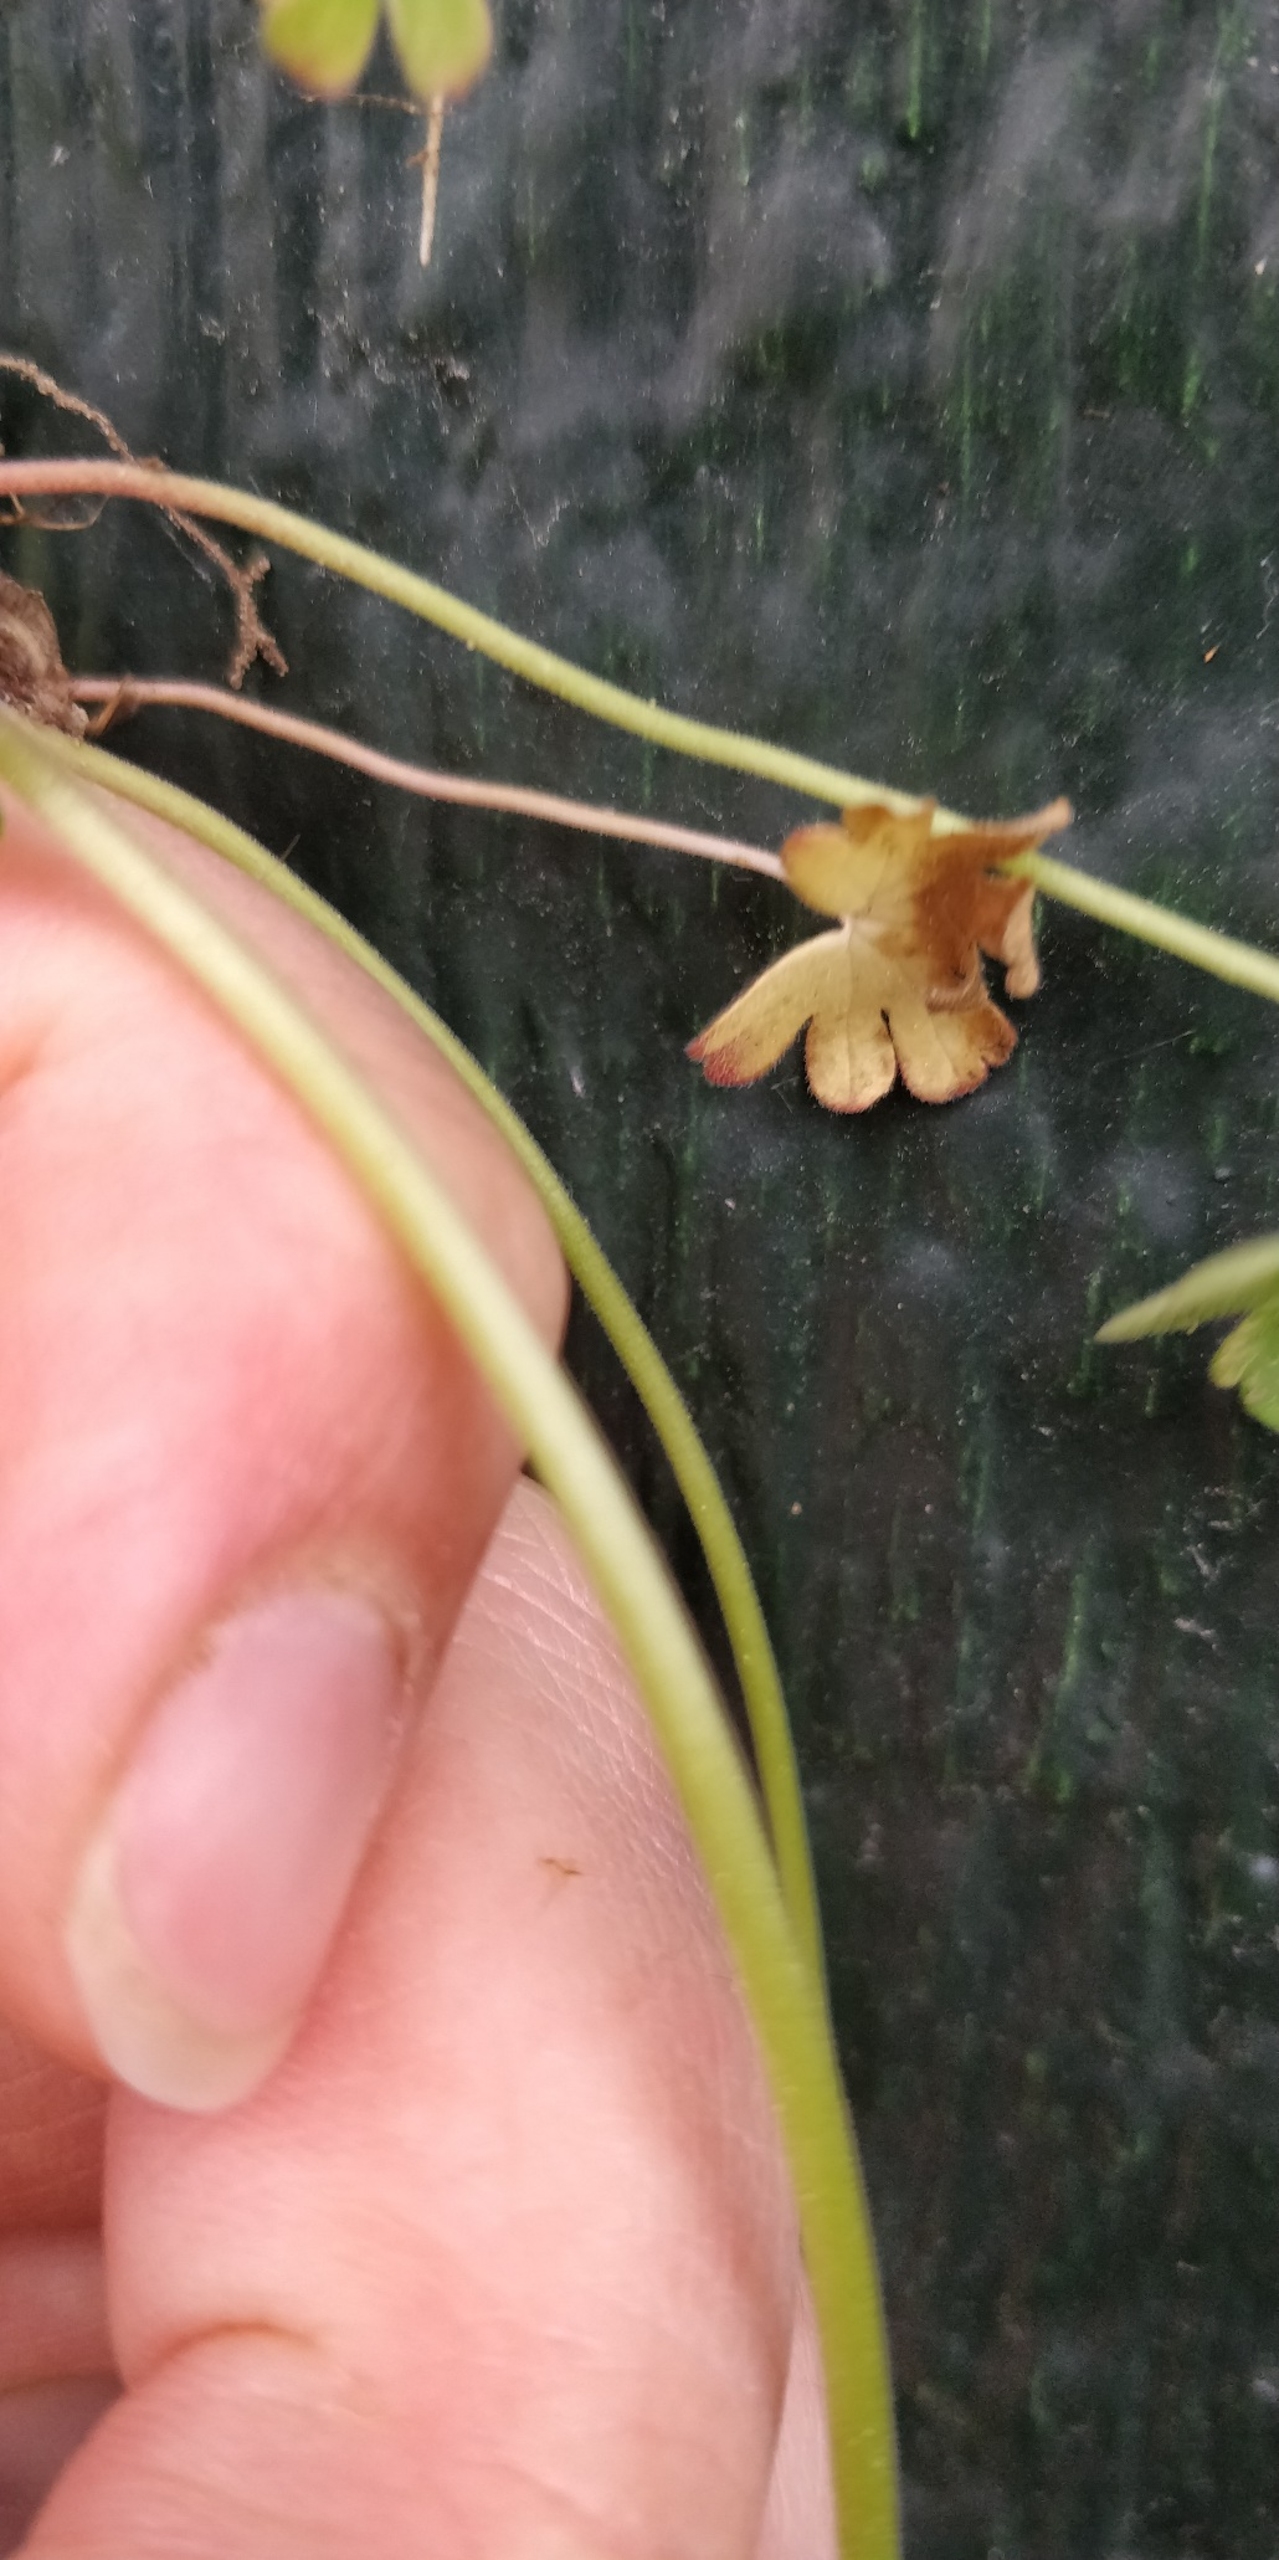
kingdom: Plantae
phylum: Tracheophyta
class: Magnoliopsida
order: Geraniales
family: Geraniaceae
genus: Geranium
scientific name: Geranium pusillum
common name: Liden storkenæb
